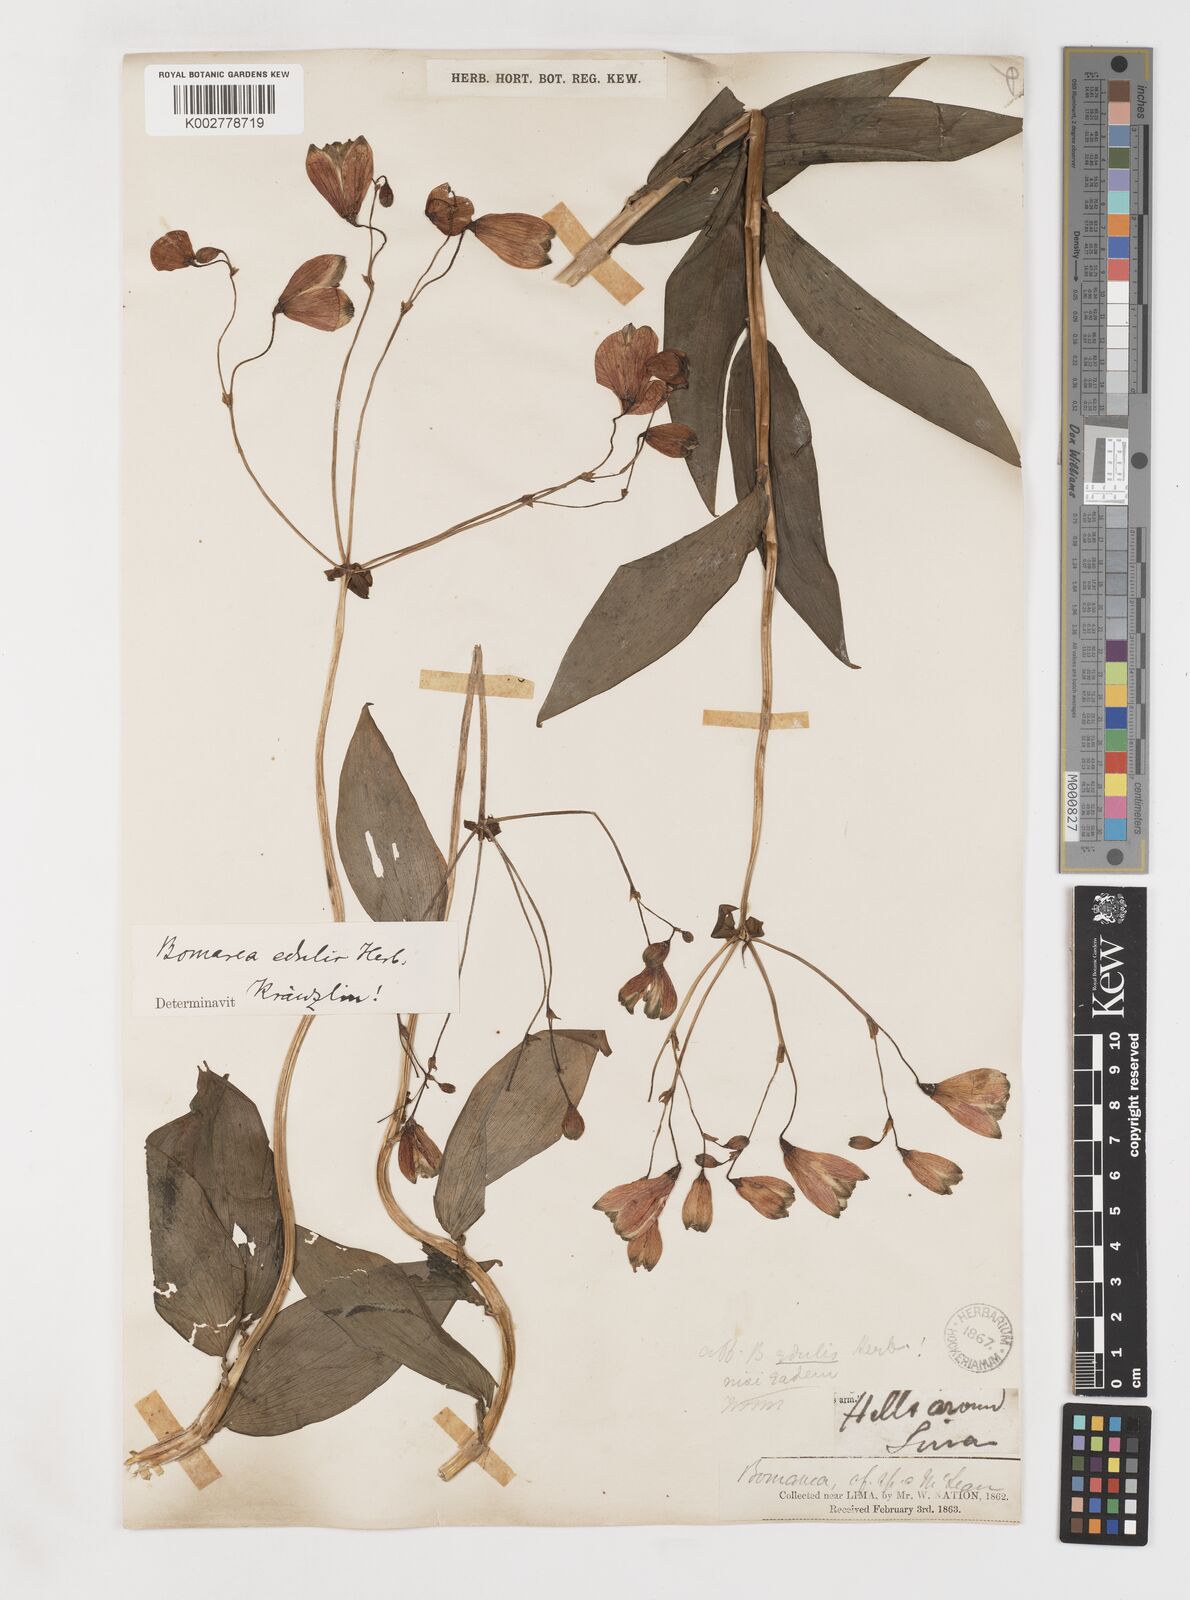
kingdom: Plantae
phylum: Tracheophyta
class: Liliopsida
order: Liliales
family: Alstroemeriaceae
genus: Bomarea
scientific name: Bomarea edulis
